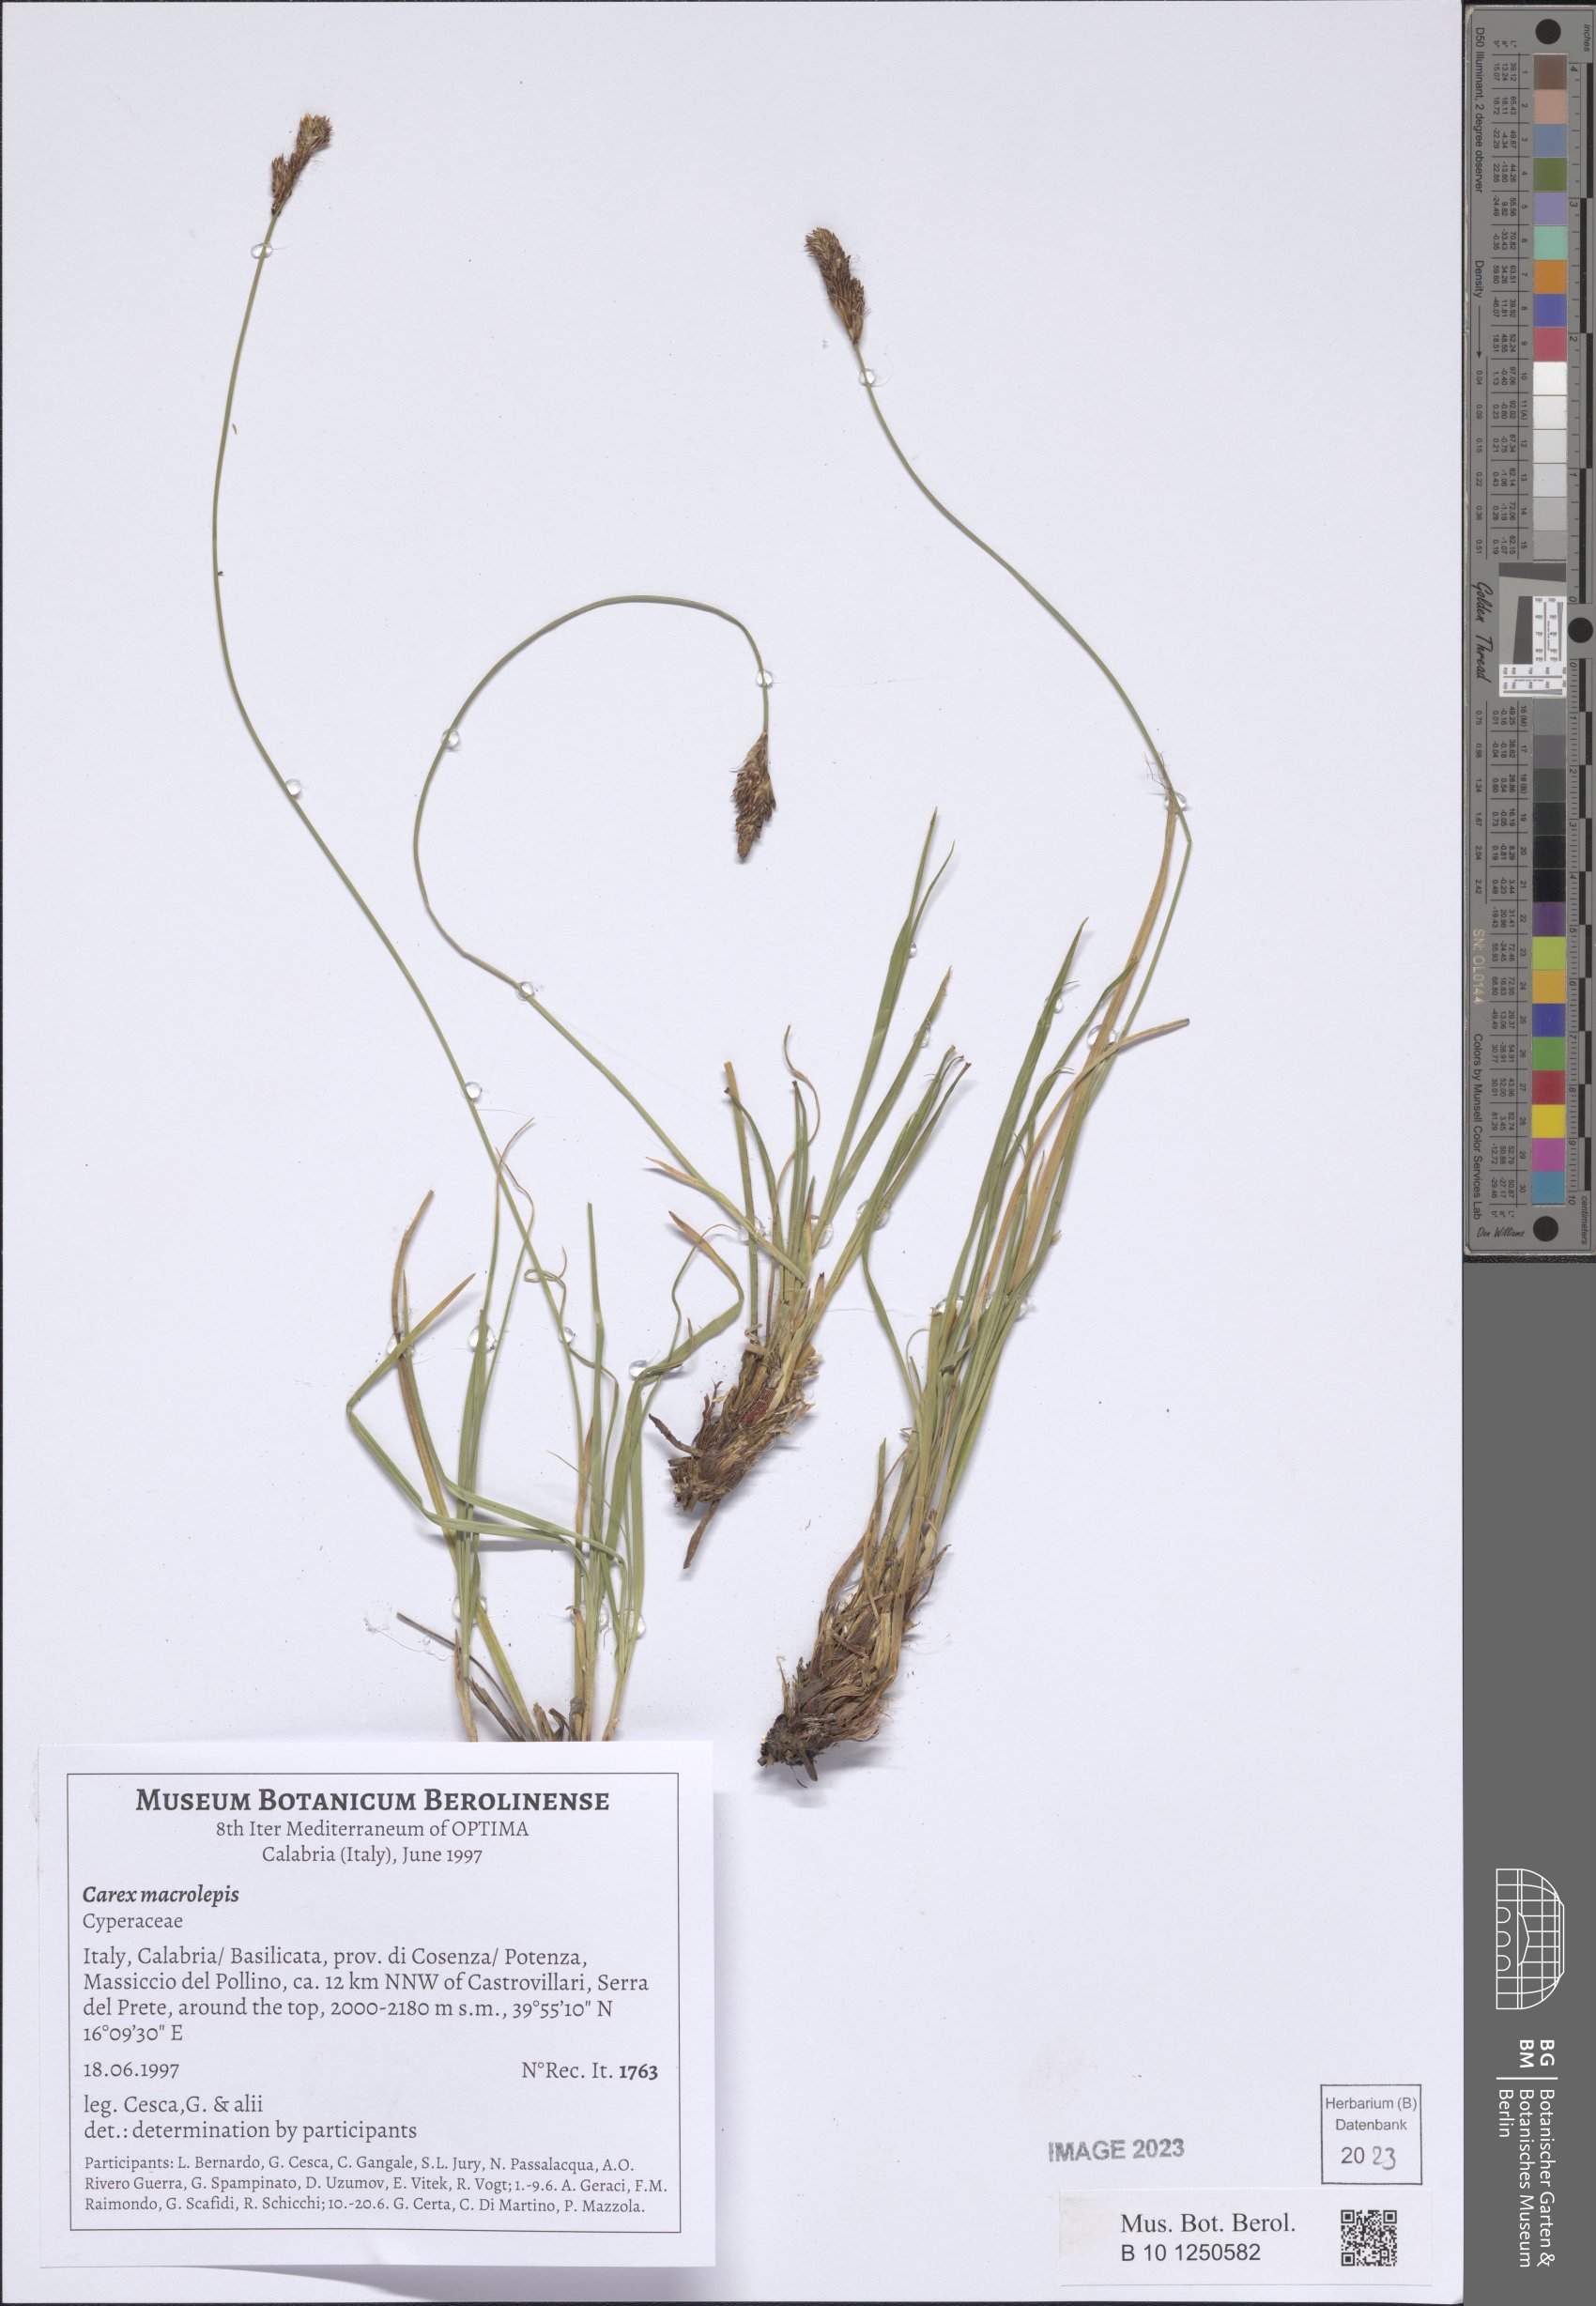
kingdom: Plantae
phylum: Tracheophyta
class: Liliopsida
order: Poales
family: Cyperaceae
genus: Carex
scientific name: Carex macrolepis
